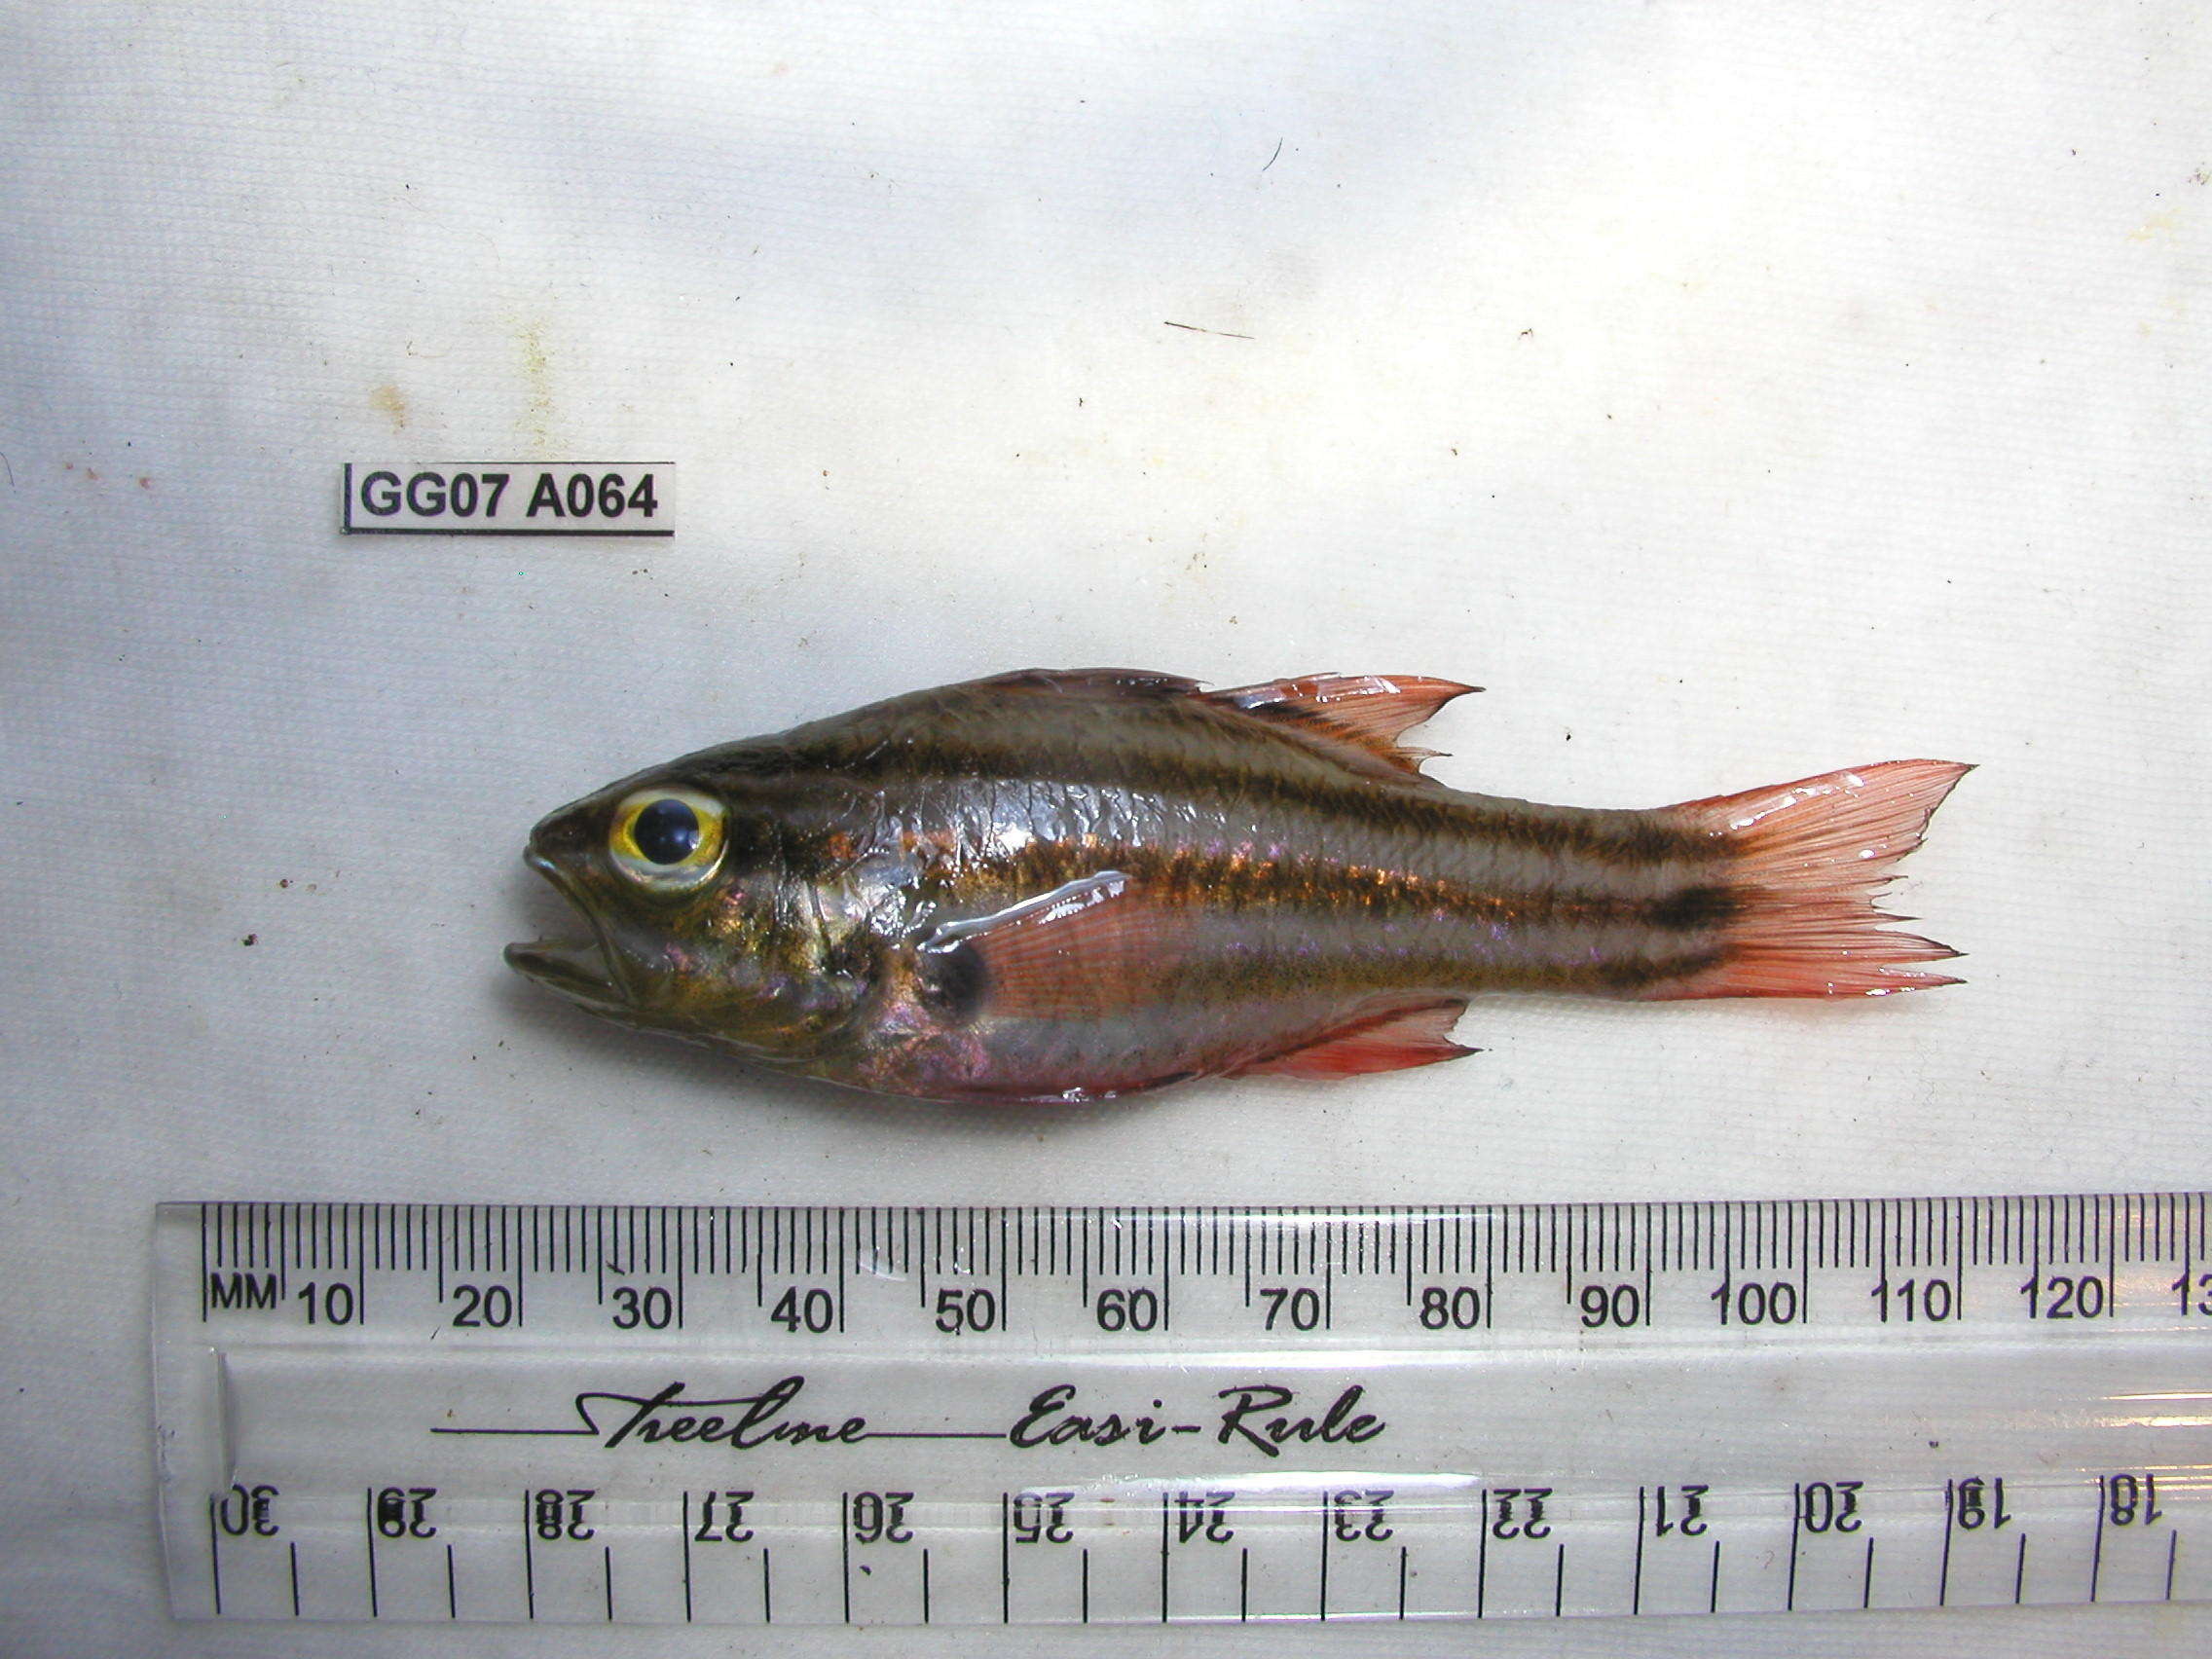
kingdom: Animalia
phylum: Chordata
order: Perciformes
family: Apogonidae
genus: Ostorhinchus
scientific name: Ostorhinchus angustatus
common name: Narrow-striped cardinalfish
